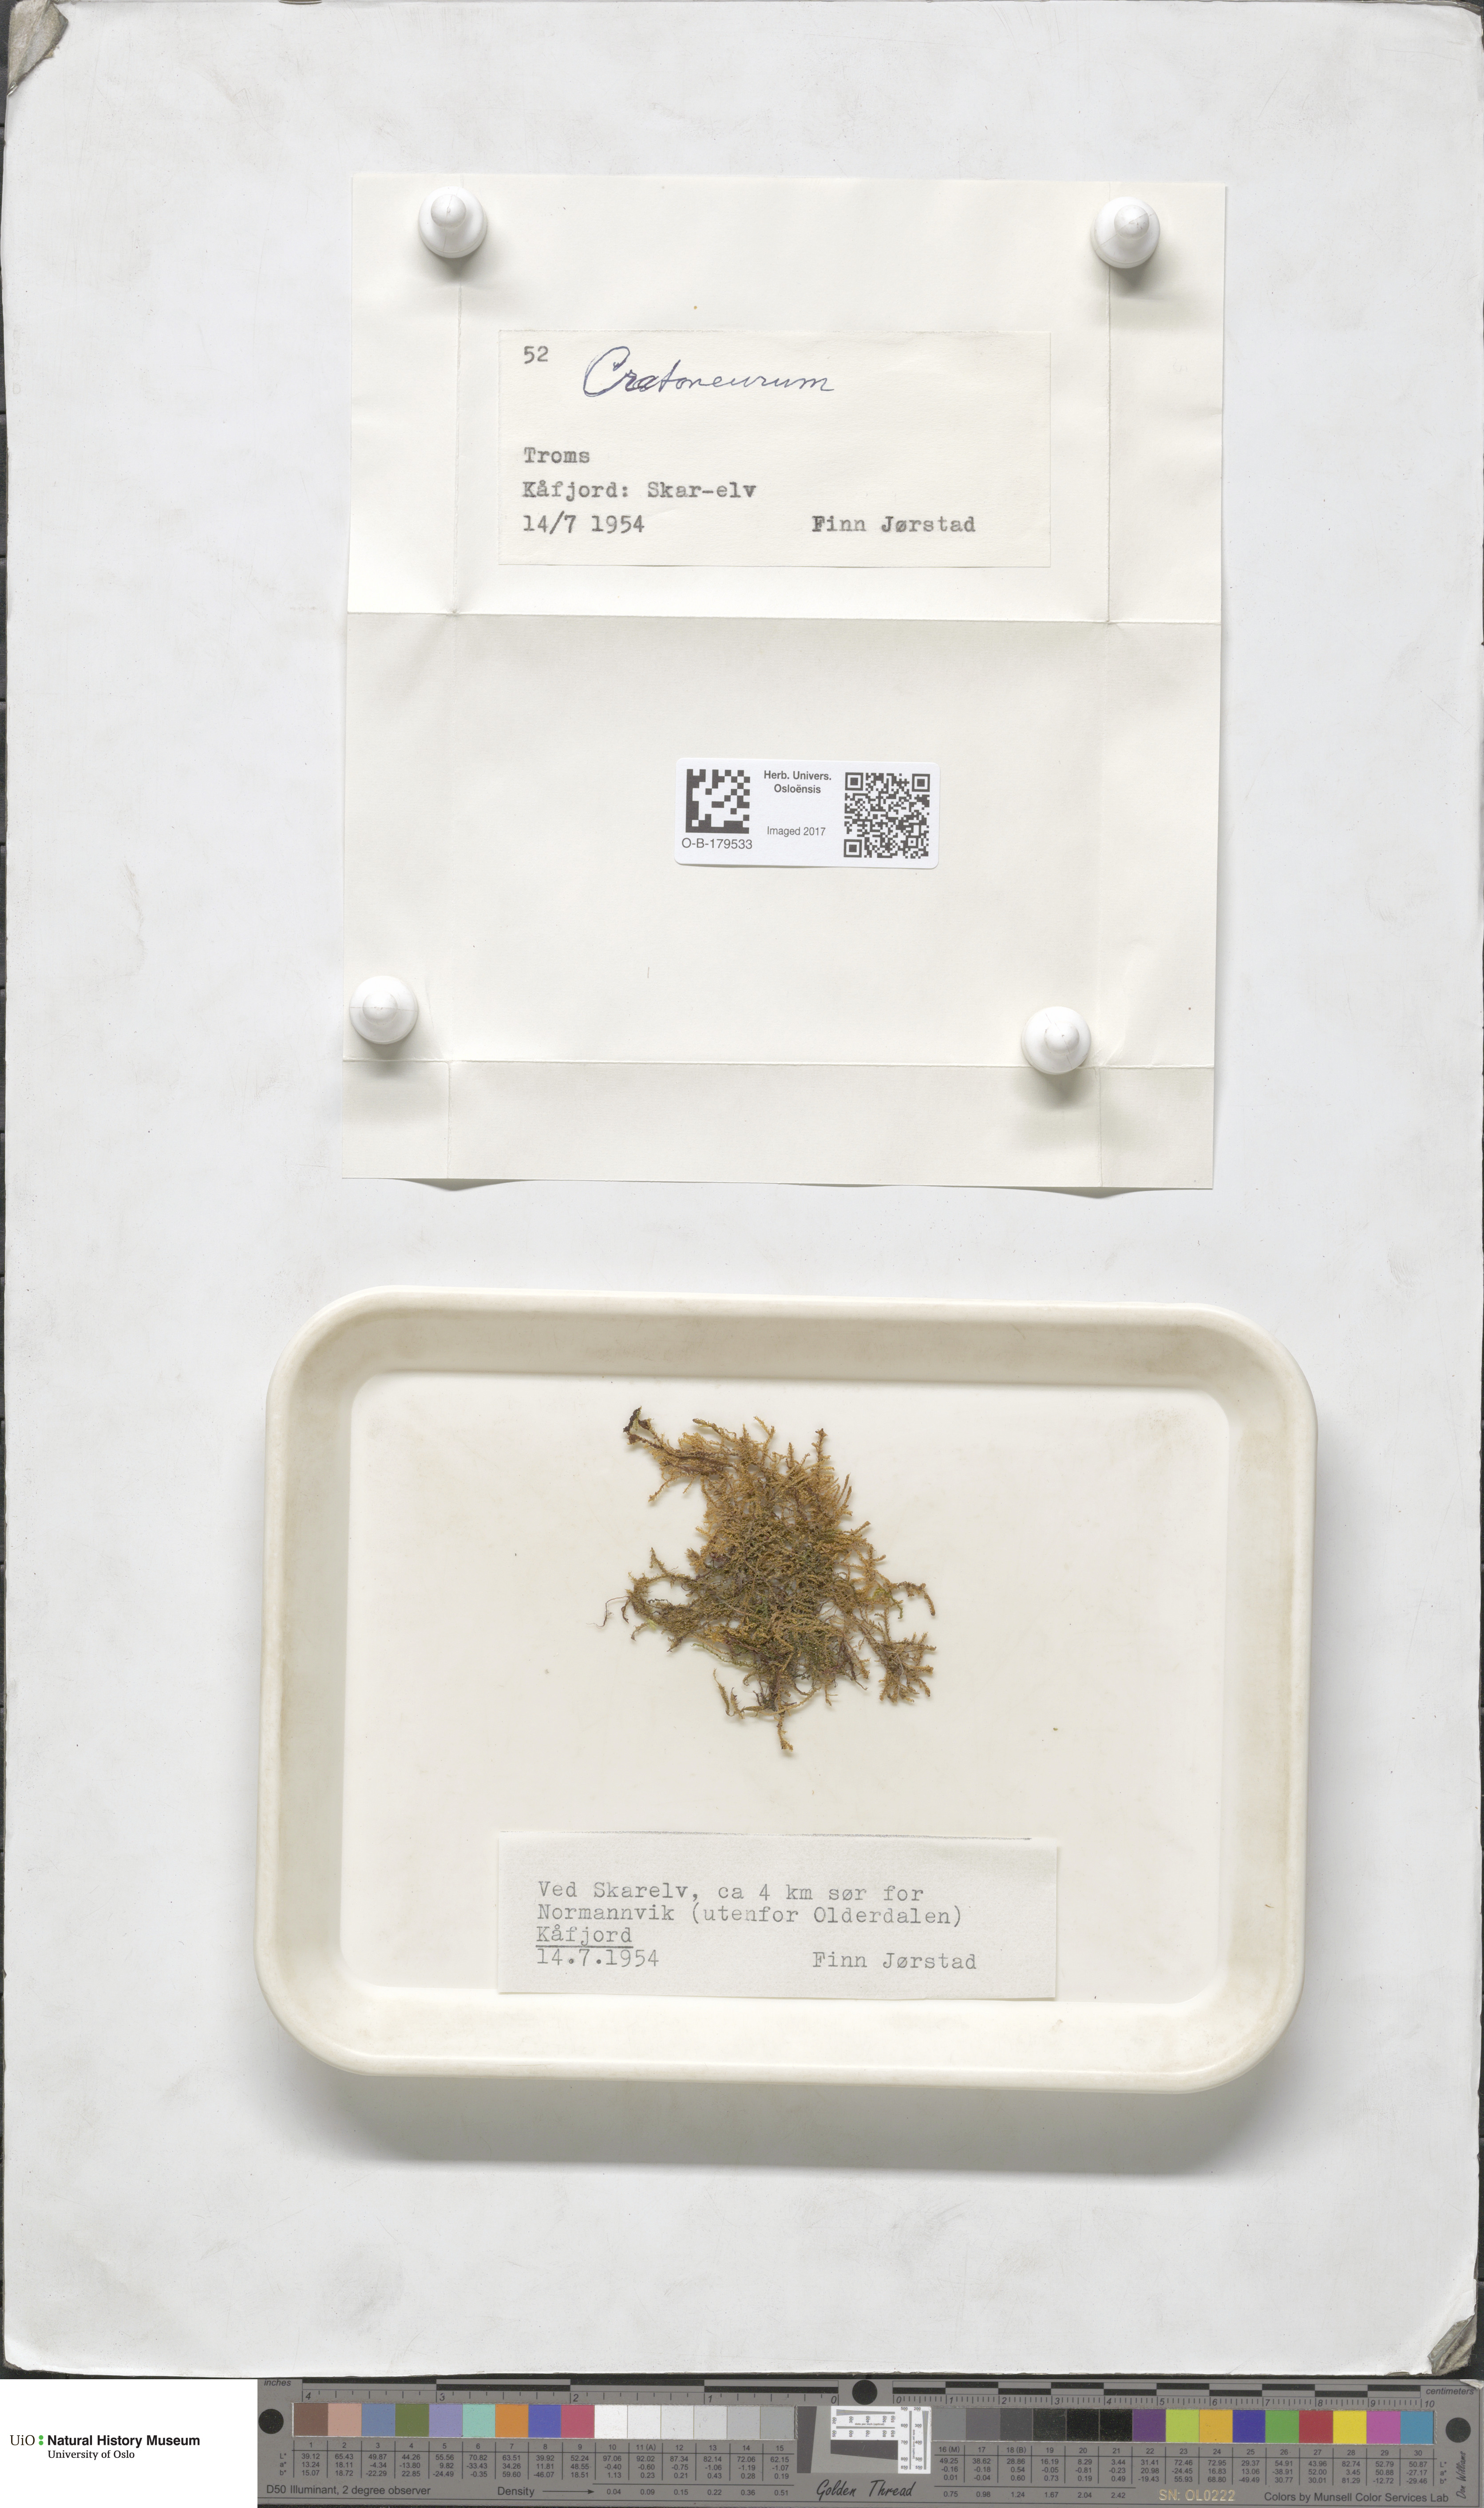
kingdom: Plantae
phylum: Bryophyta
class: Bryopsida
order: Hypnales
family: Amblystegiaceae
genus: Cratoneuron
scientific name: Cratoneuron
